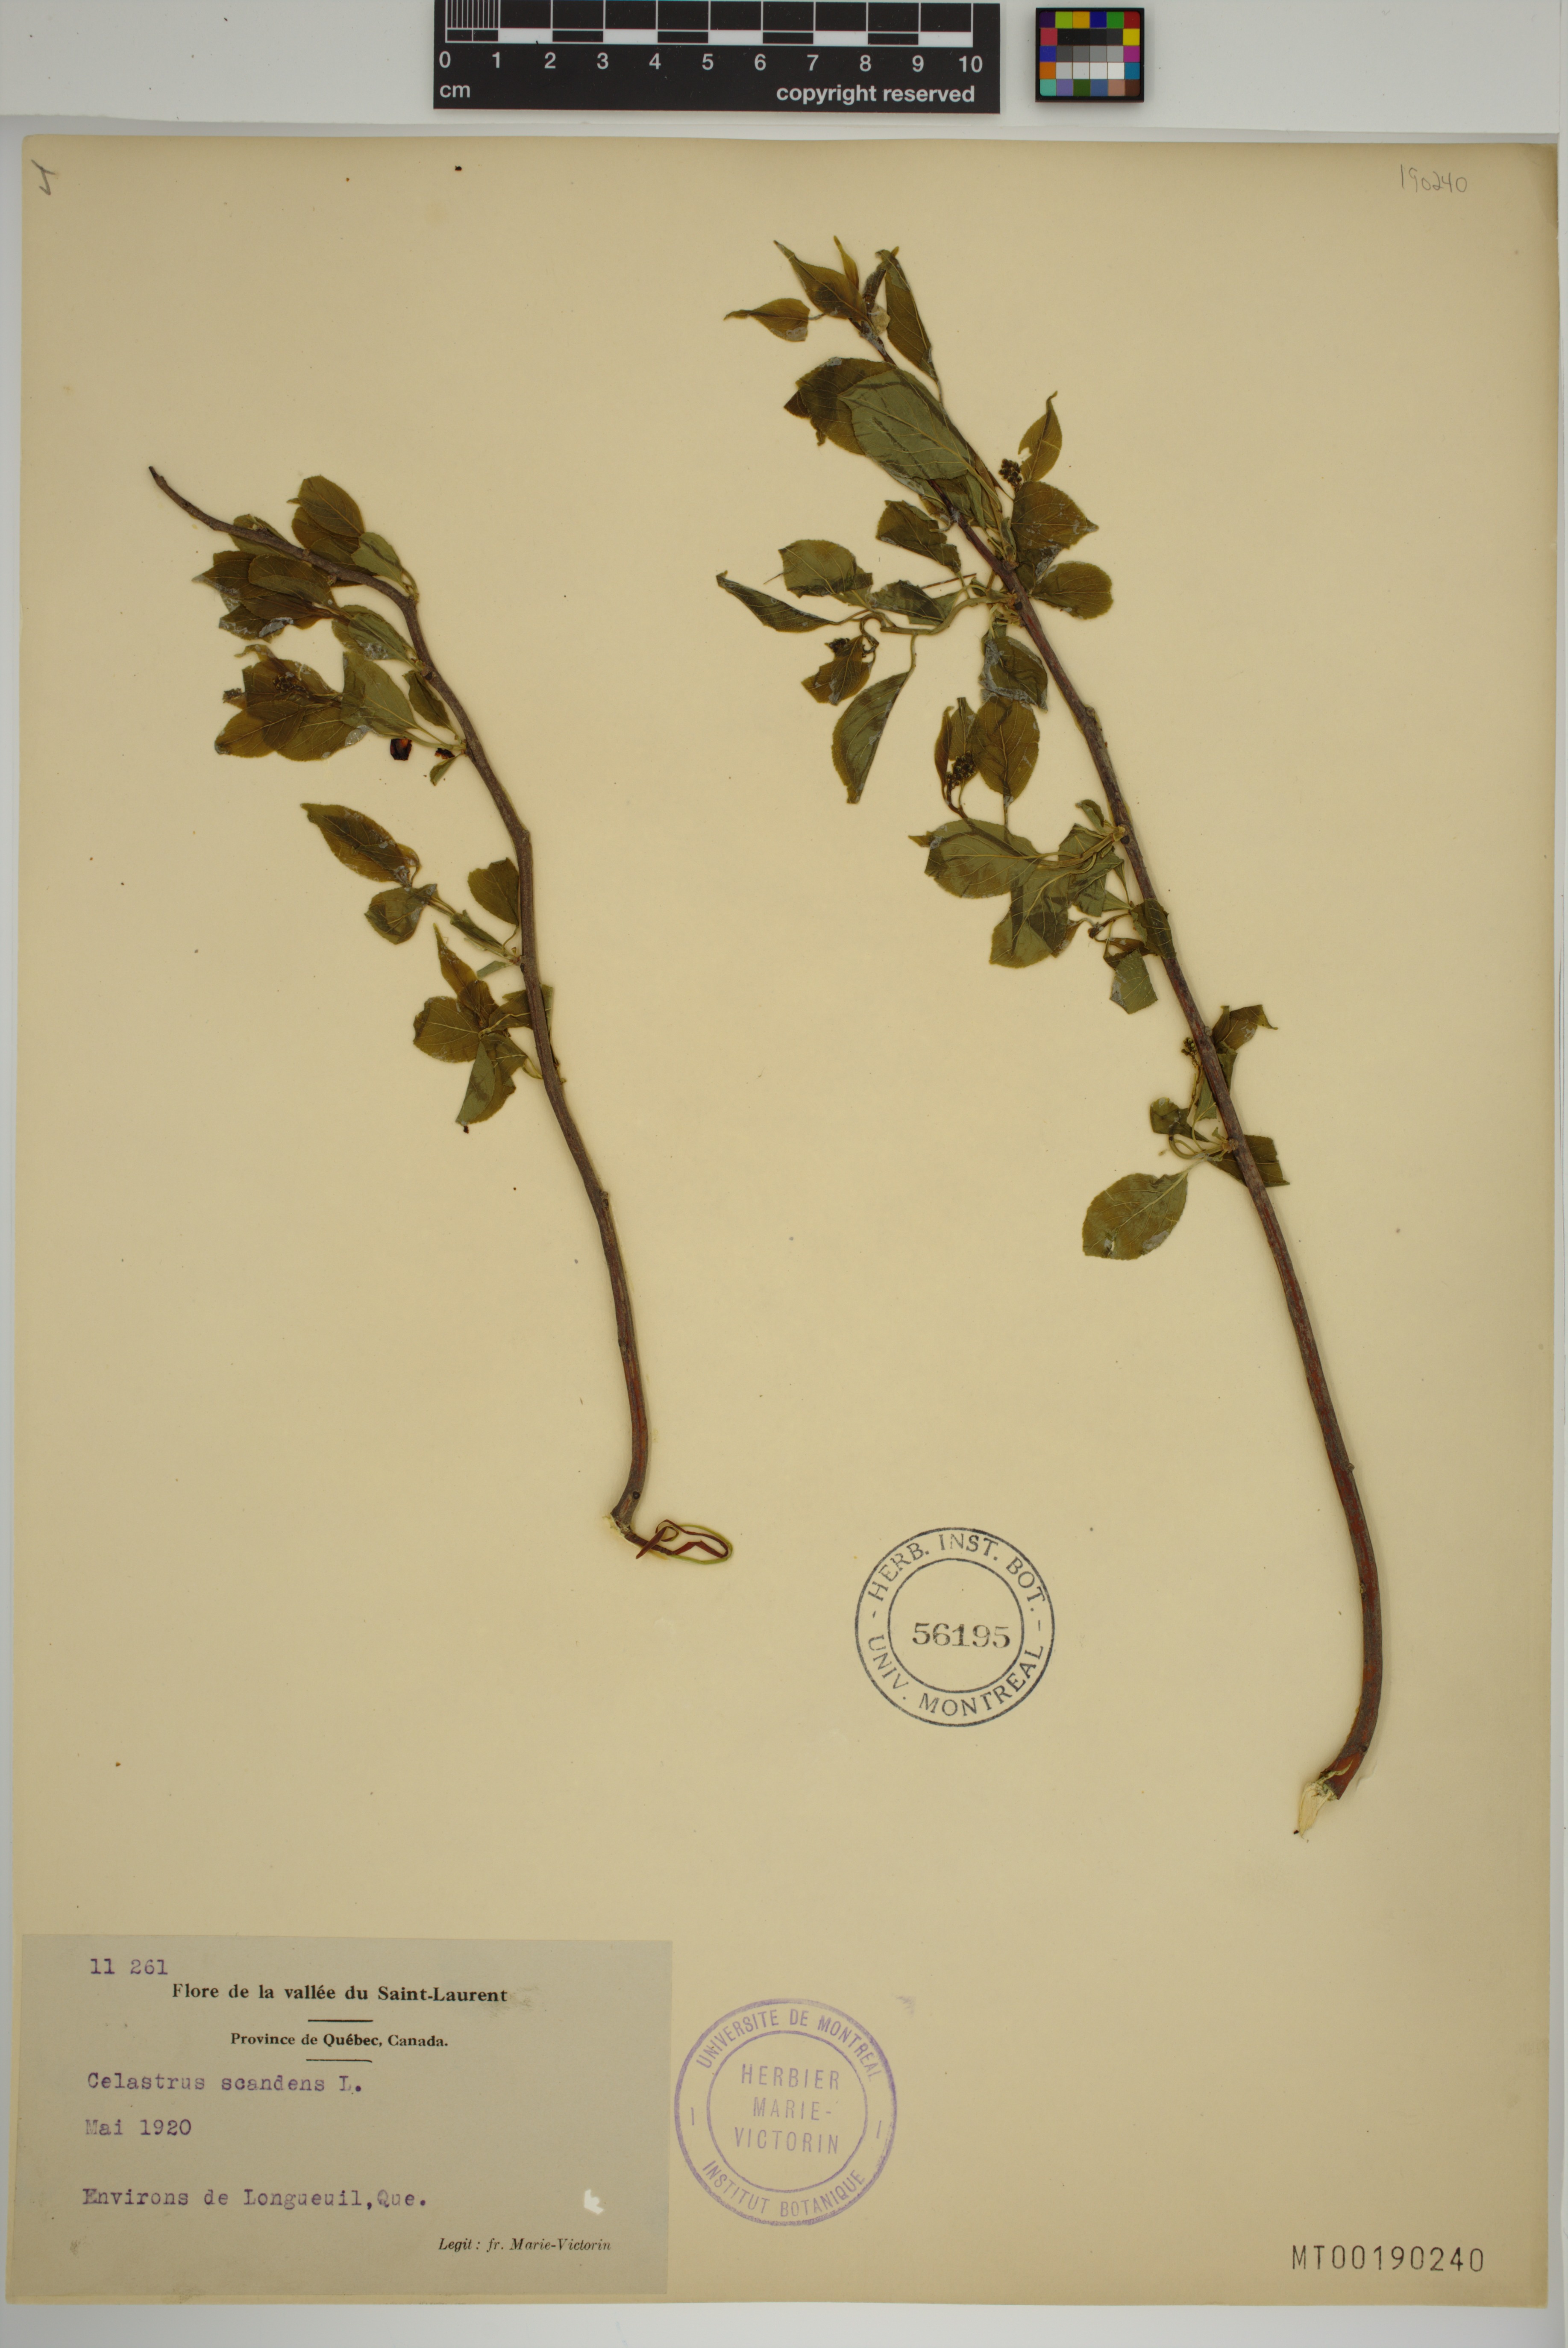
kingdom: Plantae
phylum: Tracheophyta
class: Magnoliopsida
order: Celastrales
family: Celastraceae
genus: Celastrus
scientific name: Celastrus scandens
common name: American bittersweet
